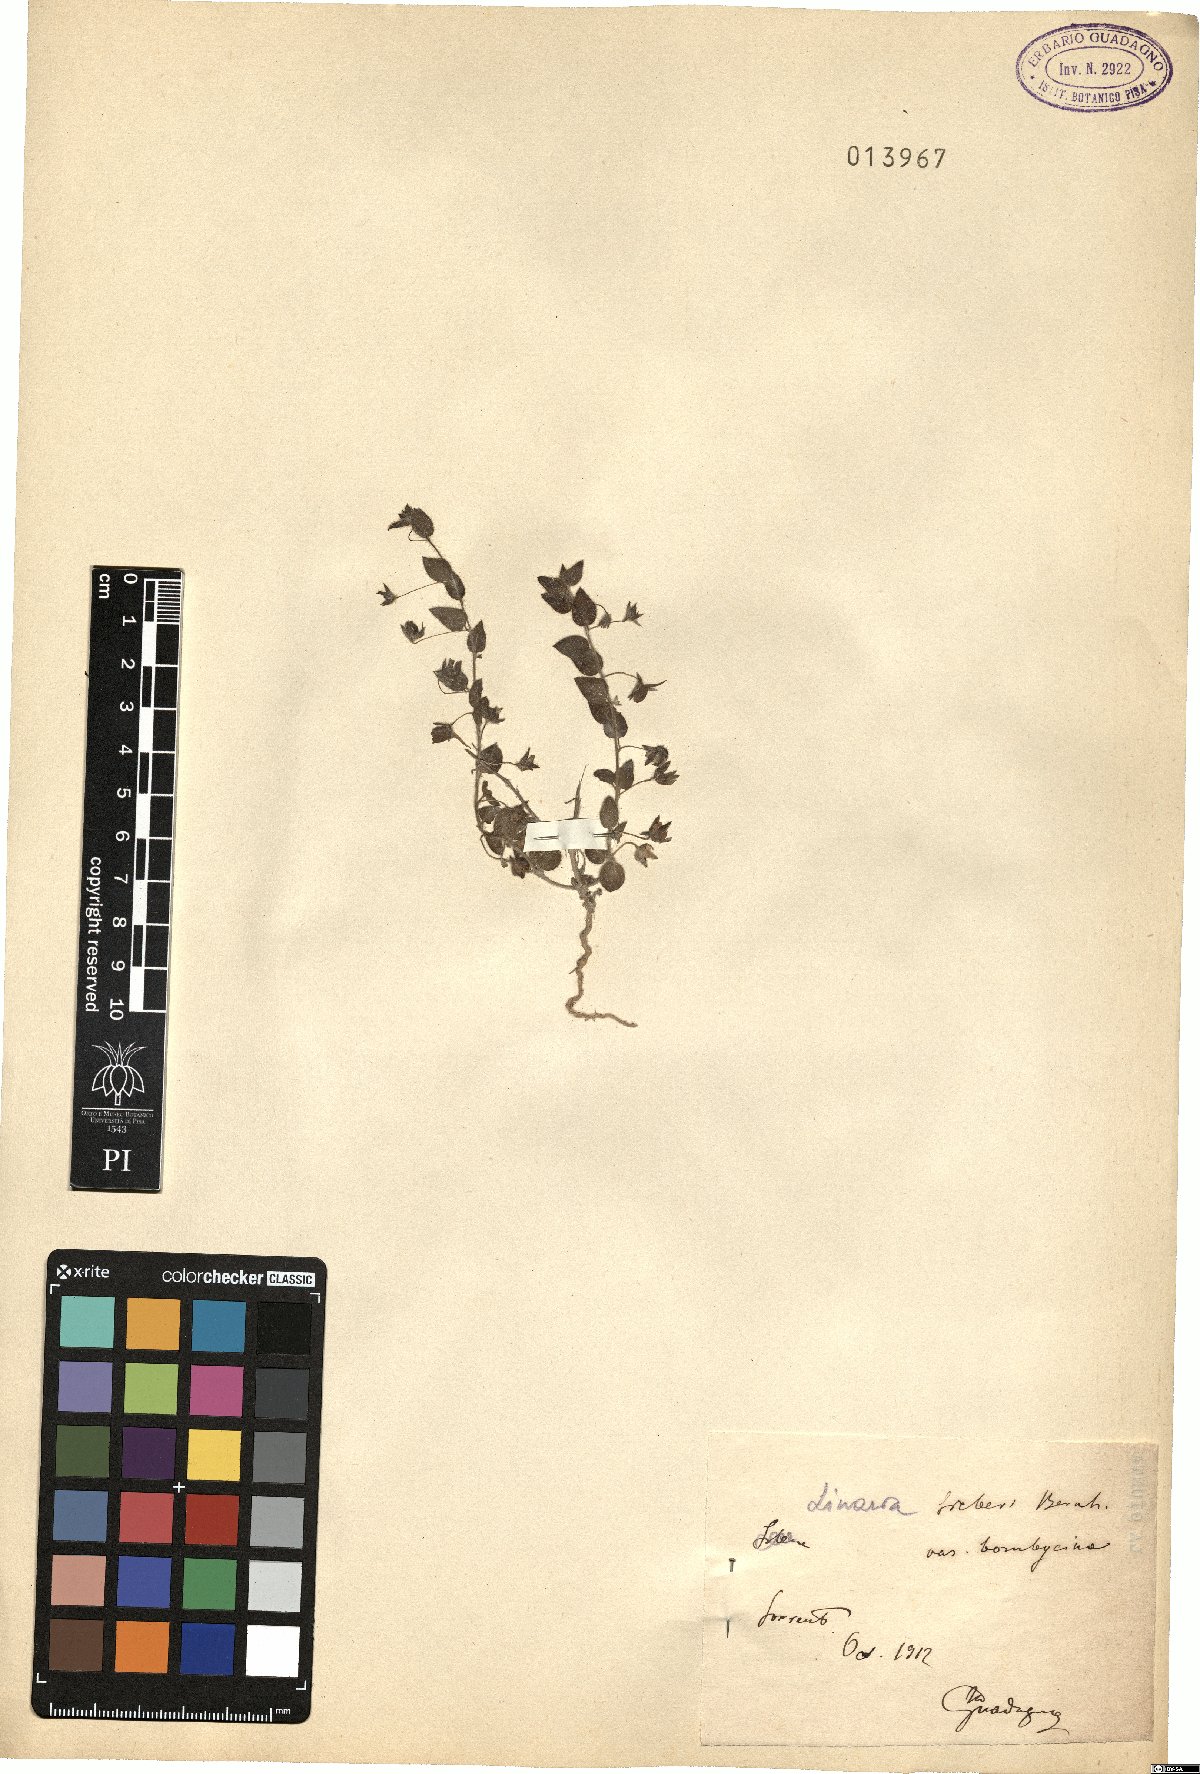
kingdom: Plantae
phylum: Tracheophyta
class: Magnoliopsida
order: Lamiales
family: Plantaginaceae
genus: Kickxia
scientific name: Kickxia elatine
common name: Sharp-leaved fluellen
